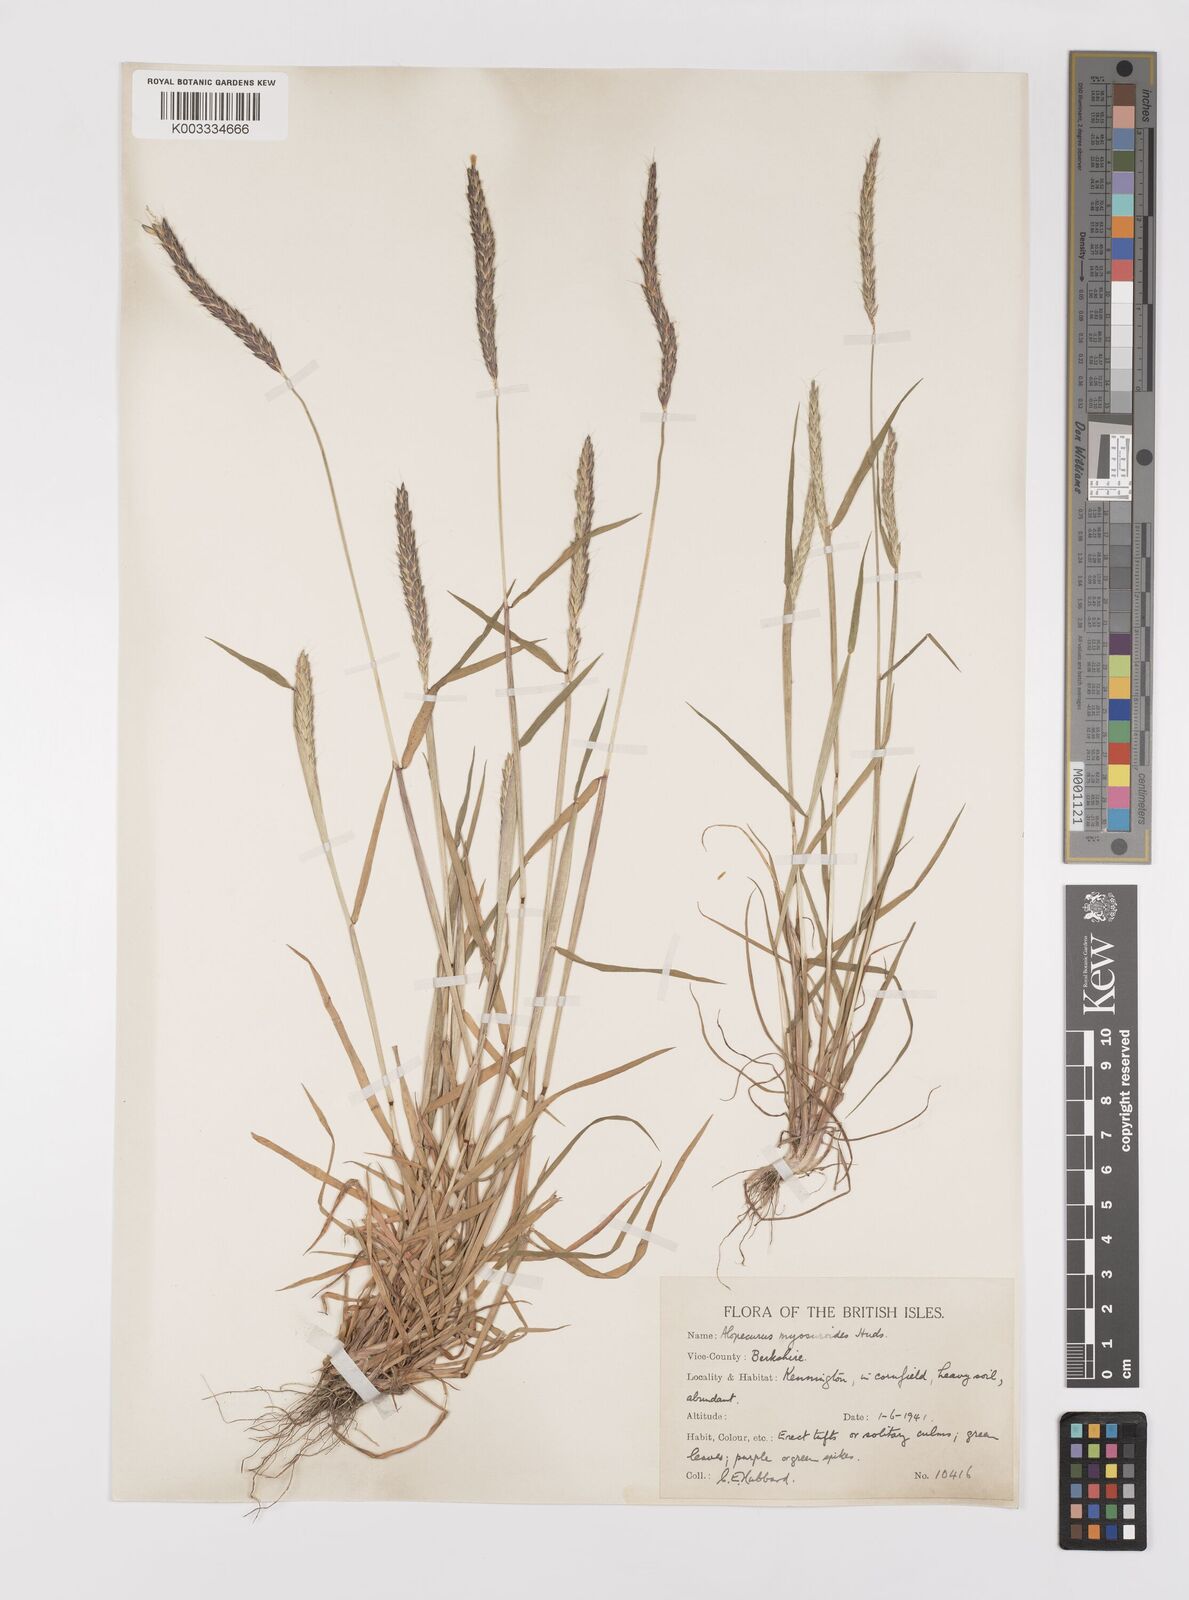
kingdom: Plantae
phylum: Tracheophyta
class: Liliopsida
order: Poales
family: Poaceae
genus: Alopecurus
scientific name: Alopecurus myosuroides
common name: Black-grass
